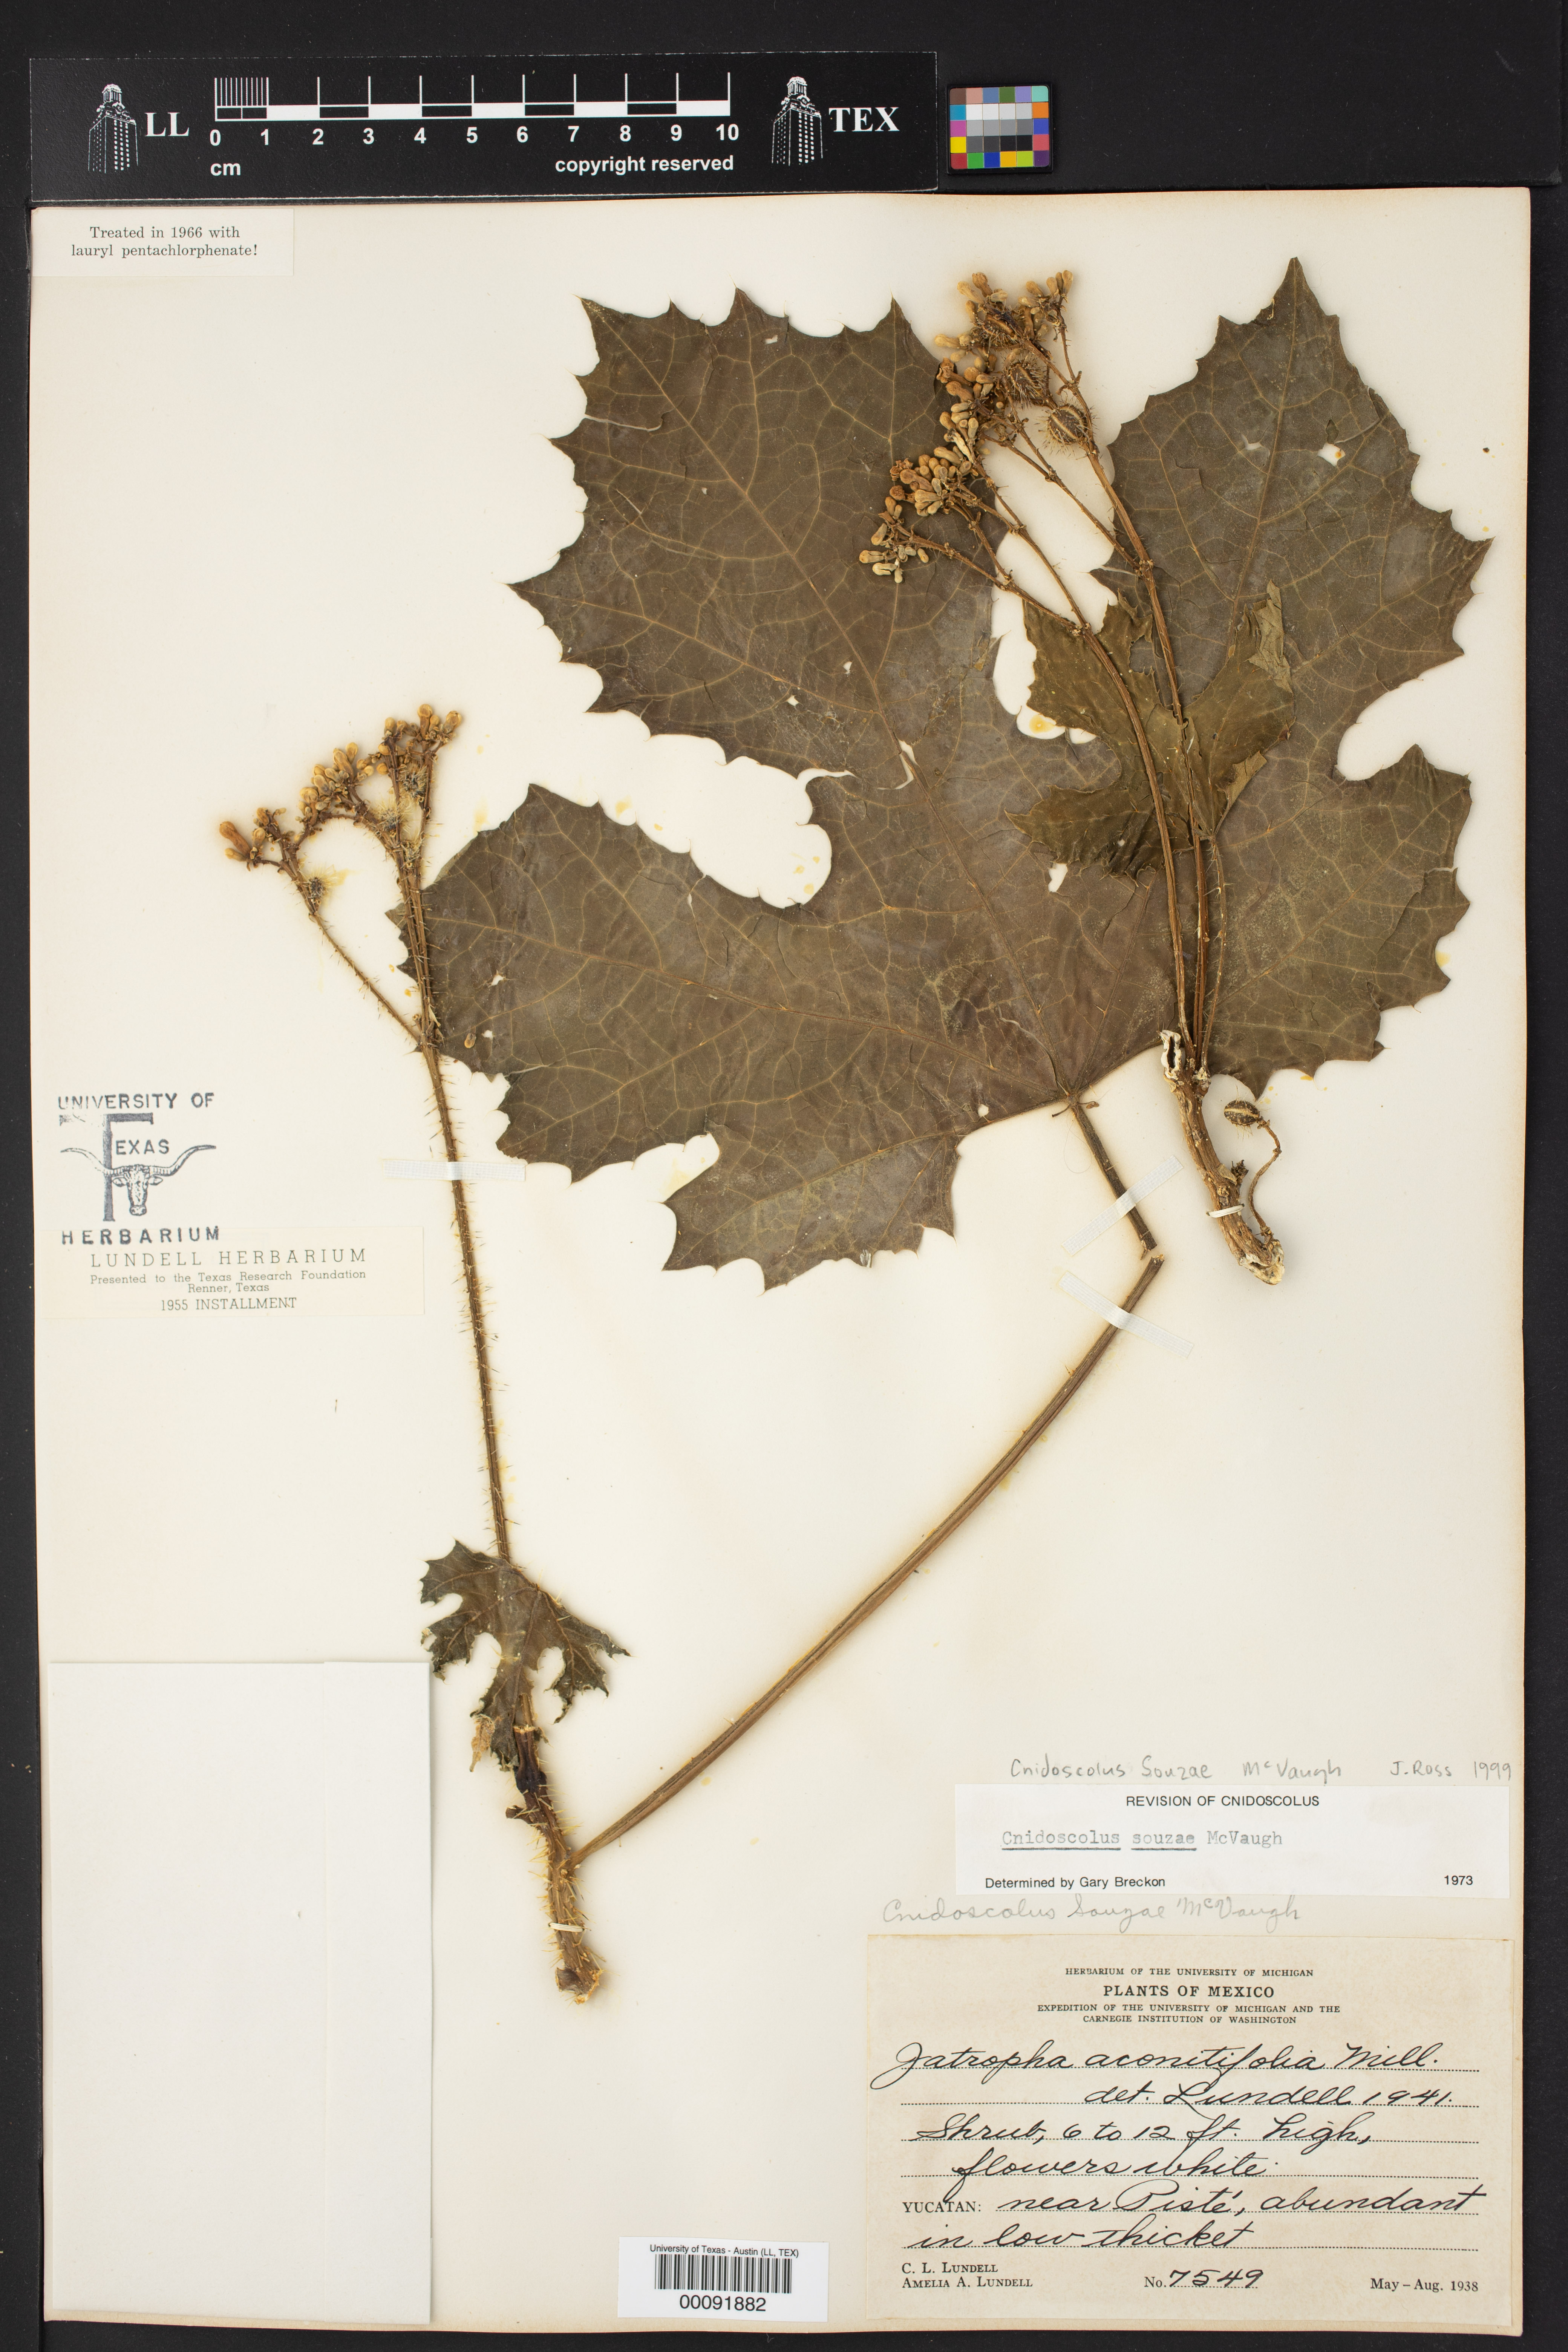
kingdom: Plantae
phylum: Tracheophyta
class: Magnoliopsida
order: Malpighiales
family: Euphorbiaceae
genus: Cnidoscolus
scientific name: Cnidoscolus souzae
